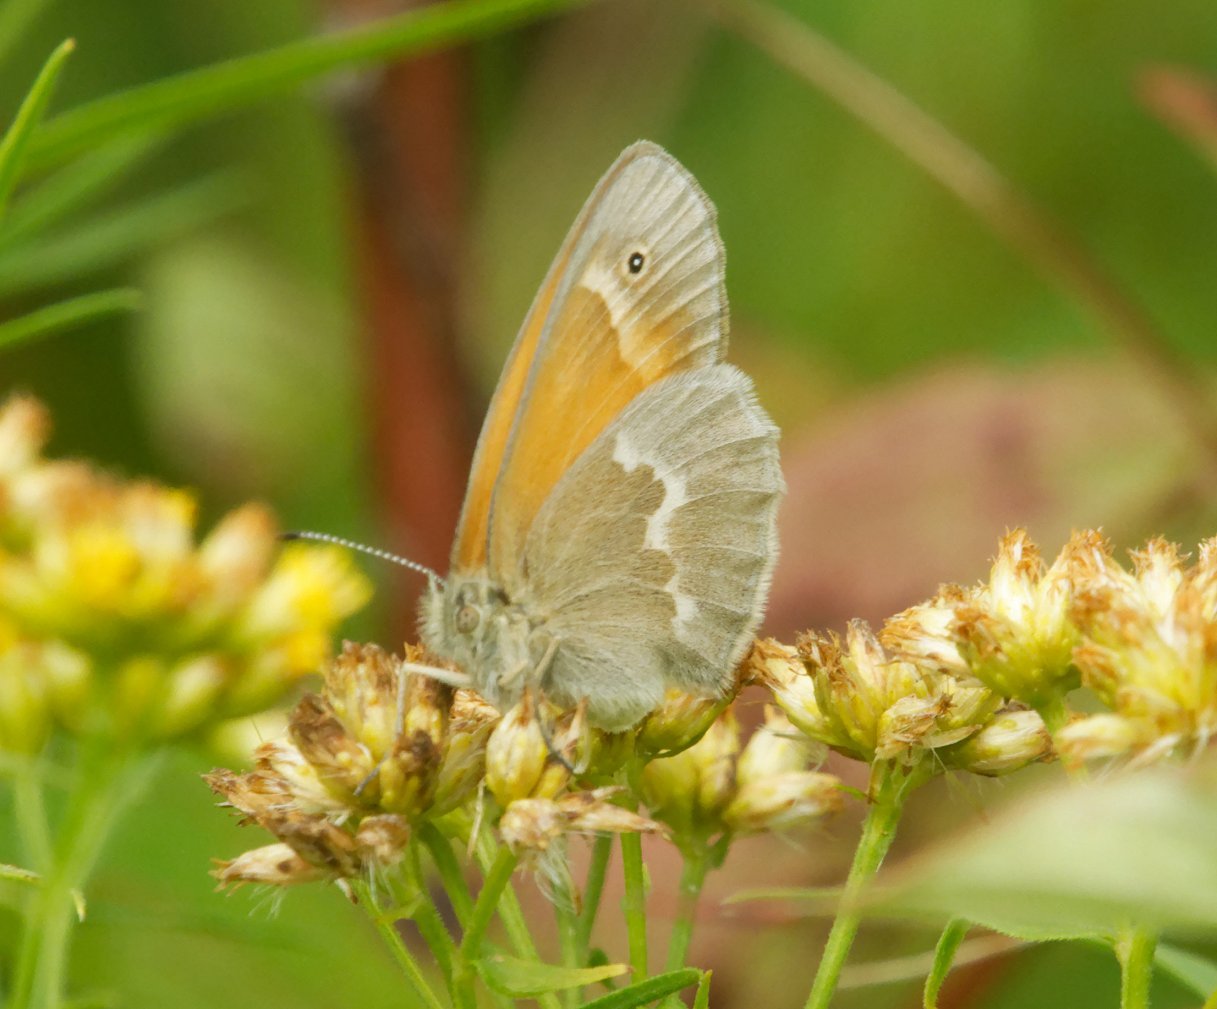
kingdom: Animalia
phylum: Arthropoda
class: Insecta
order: Lepidoptera
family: Nymphalidae
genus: Coenonympha
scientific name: Coenonympha tullia
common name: Large Heath
